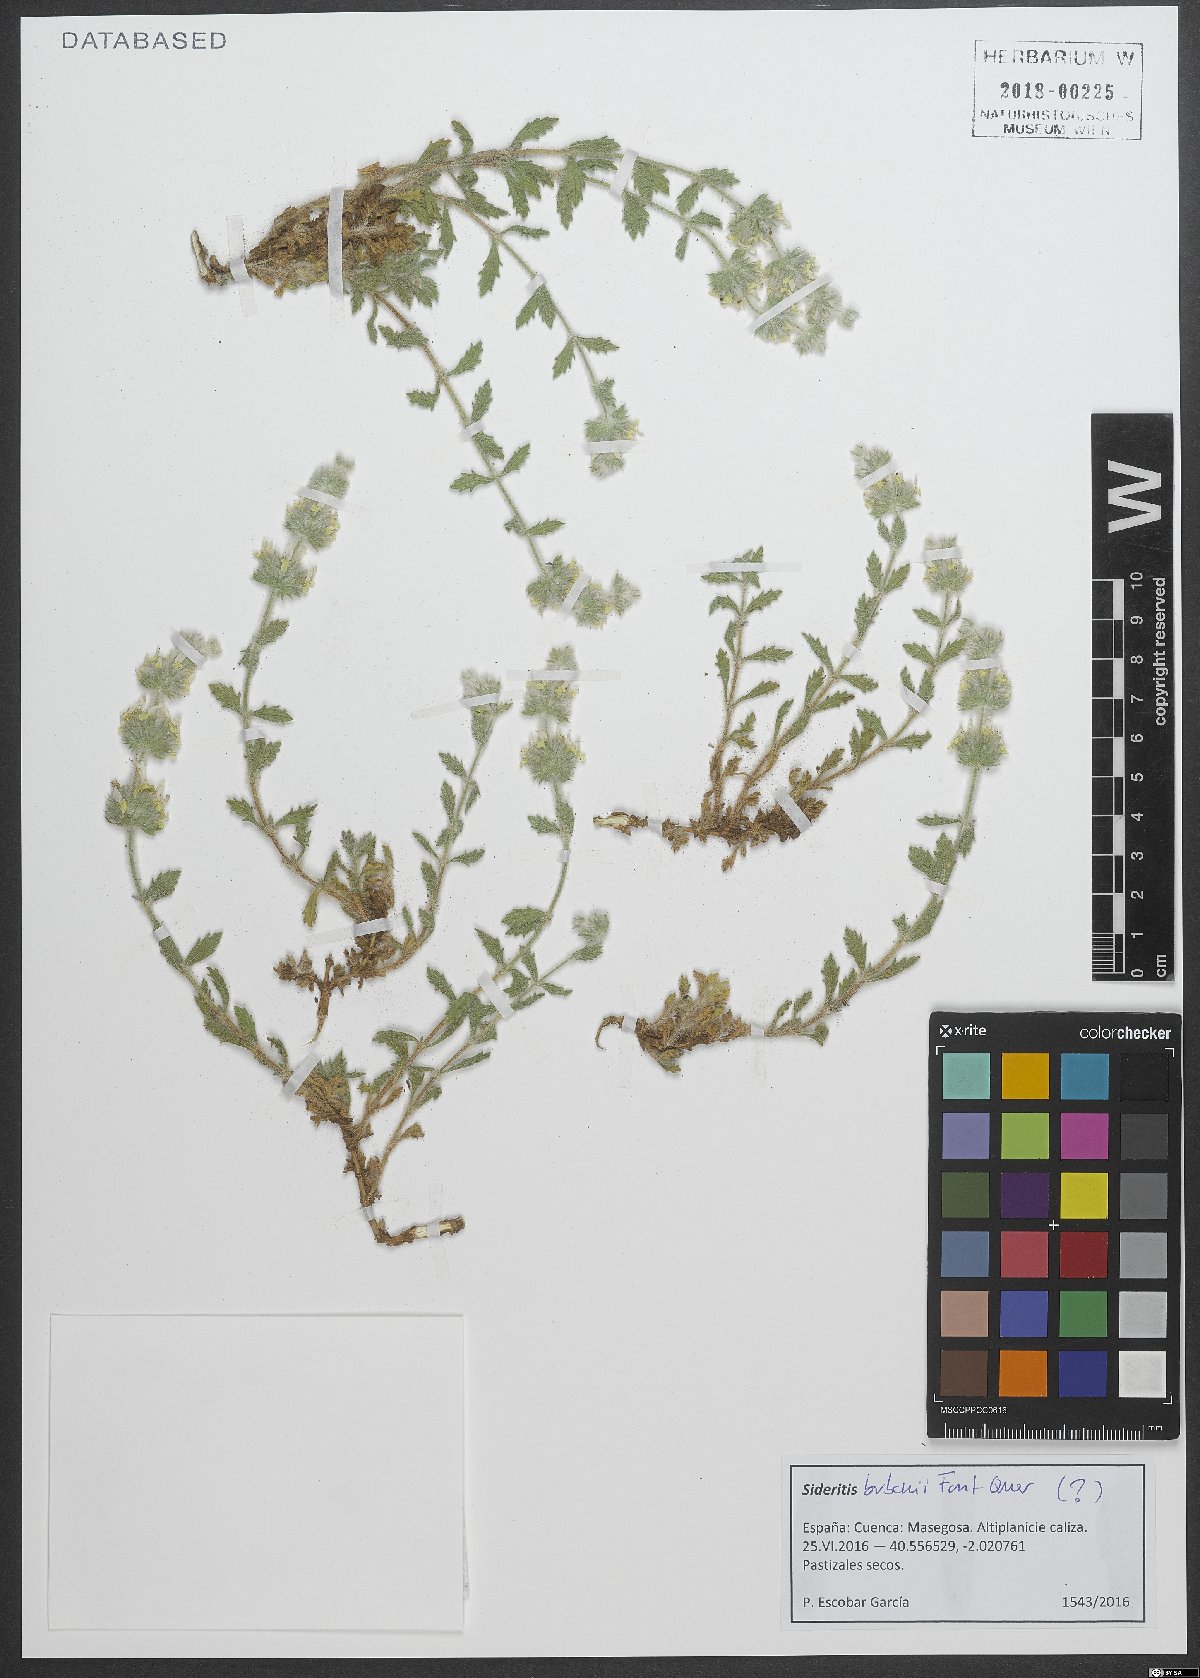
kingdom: Plantae
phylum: Tracheophyta
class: Magnoliopsida
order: Lamiales
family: Lamiaceae
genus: Sideritis
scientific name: Sideritis bubanii
